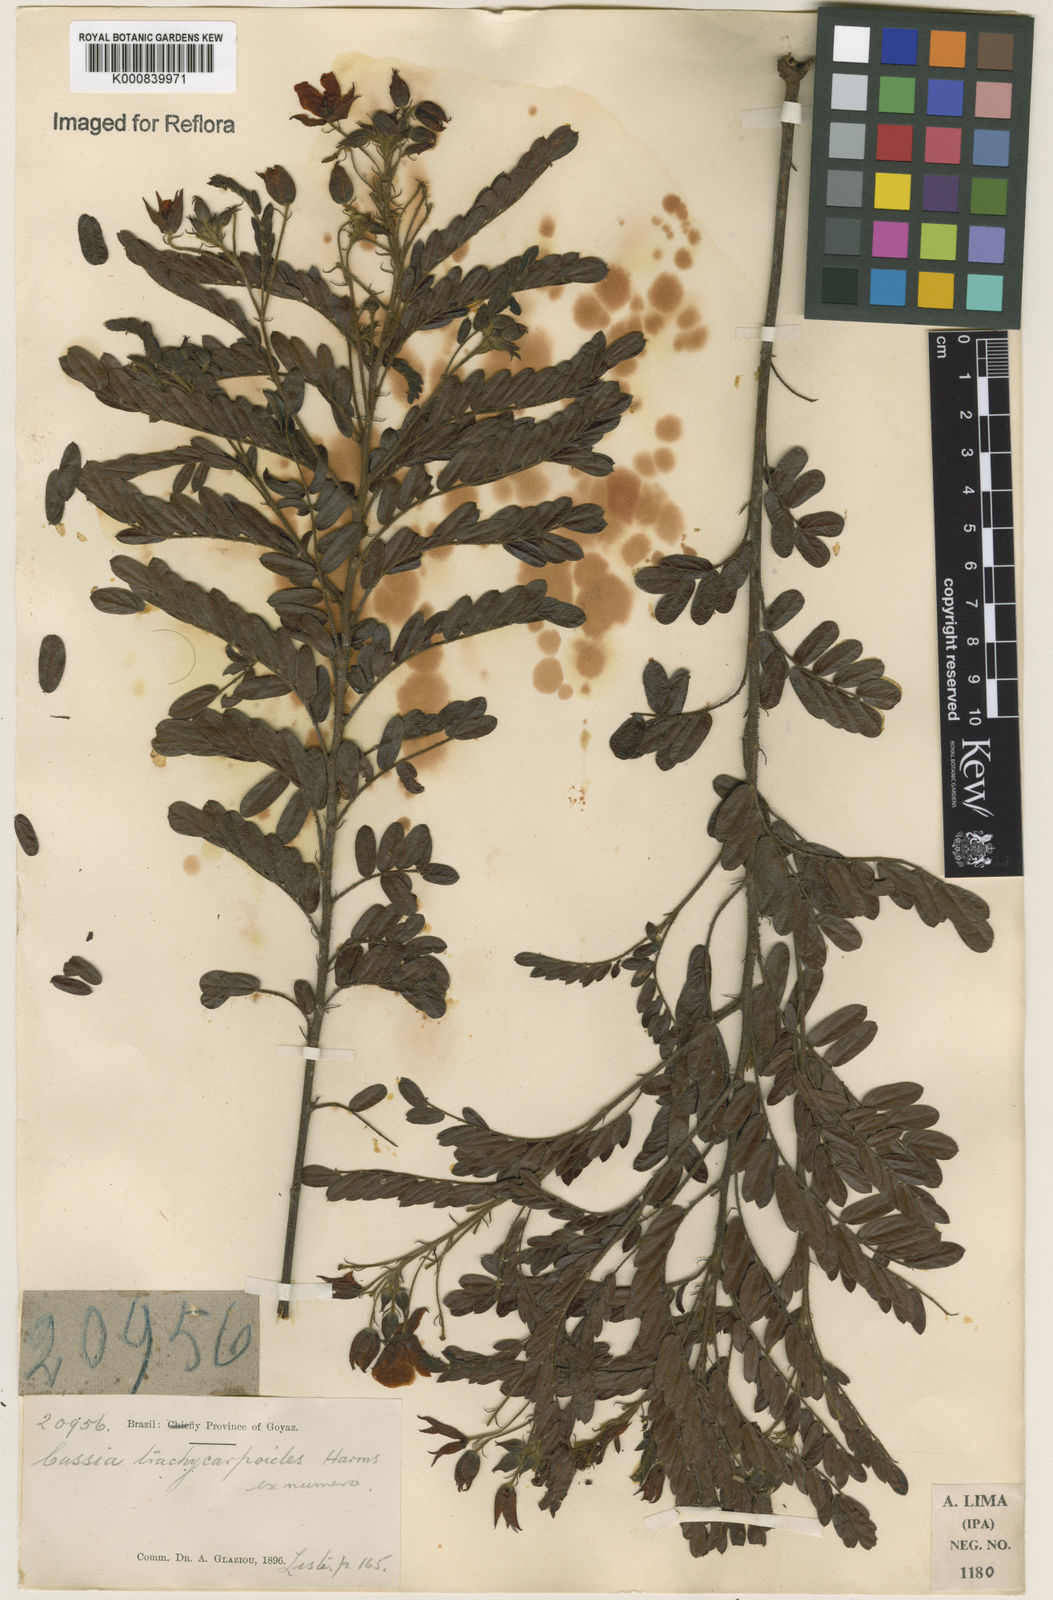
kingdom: Plantae
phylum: Tracheophyta
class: Magnoliopsida
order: Fabales
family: Fabaceae
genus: Chamaecrista
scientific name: Chamaecrista
